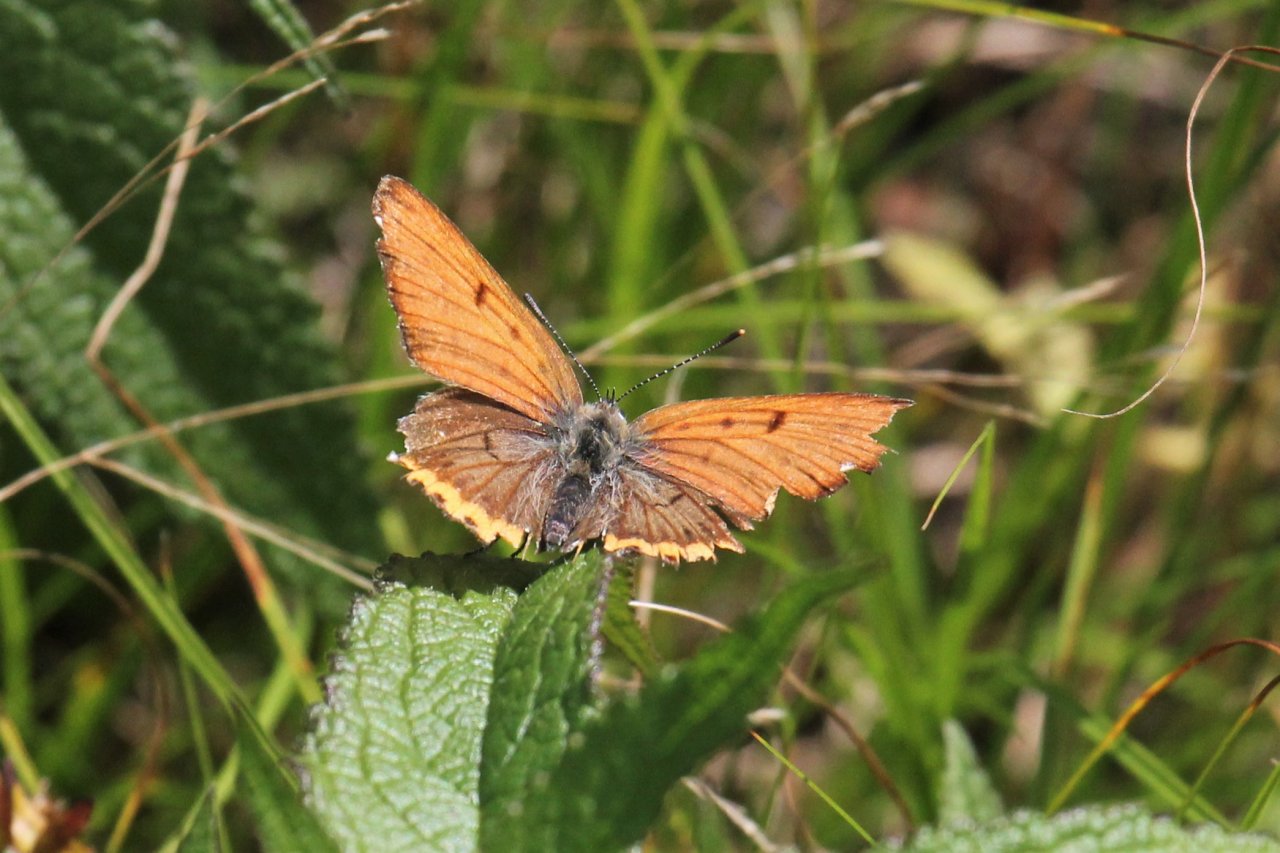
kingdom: Animalia
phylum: Arthropoda
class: Insecta
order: Lepidoptera
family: Sesiidae
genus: Sesia
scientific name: Sesia Lycaena hyllus
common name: Bronze Copper
